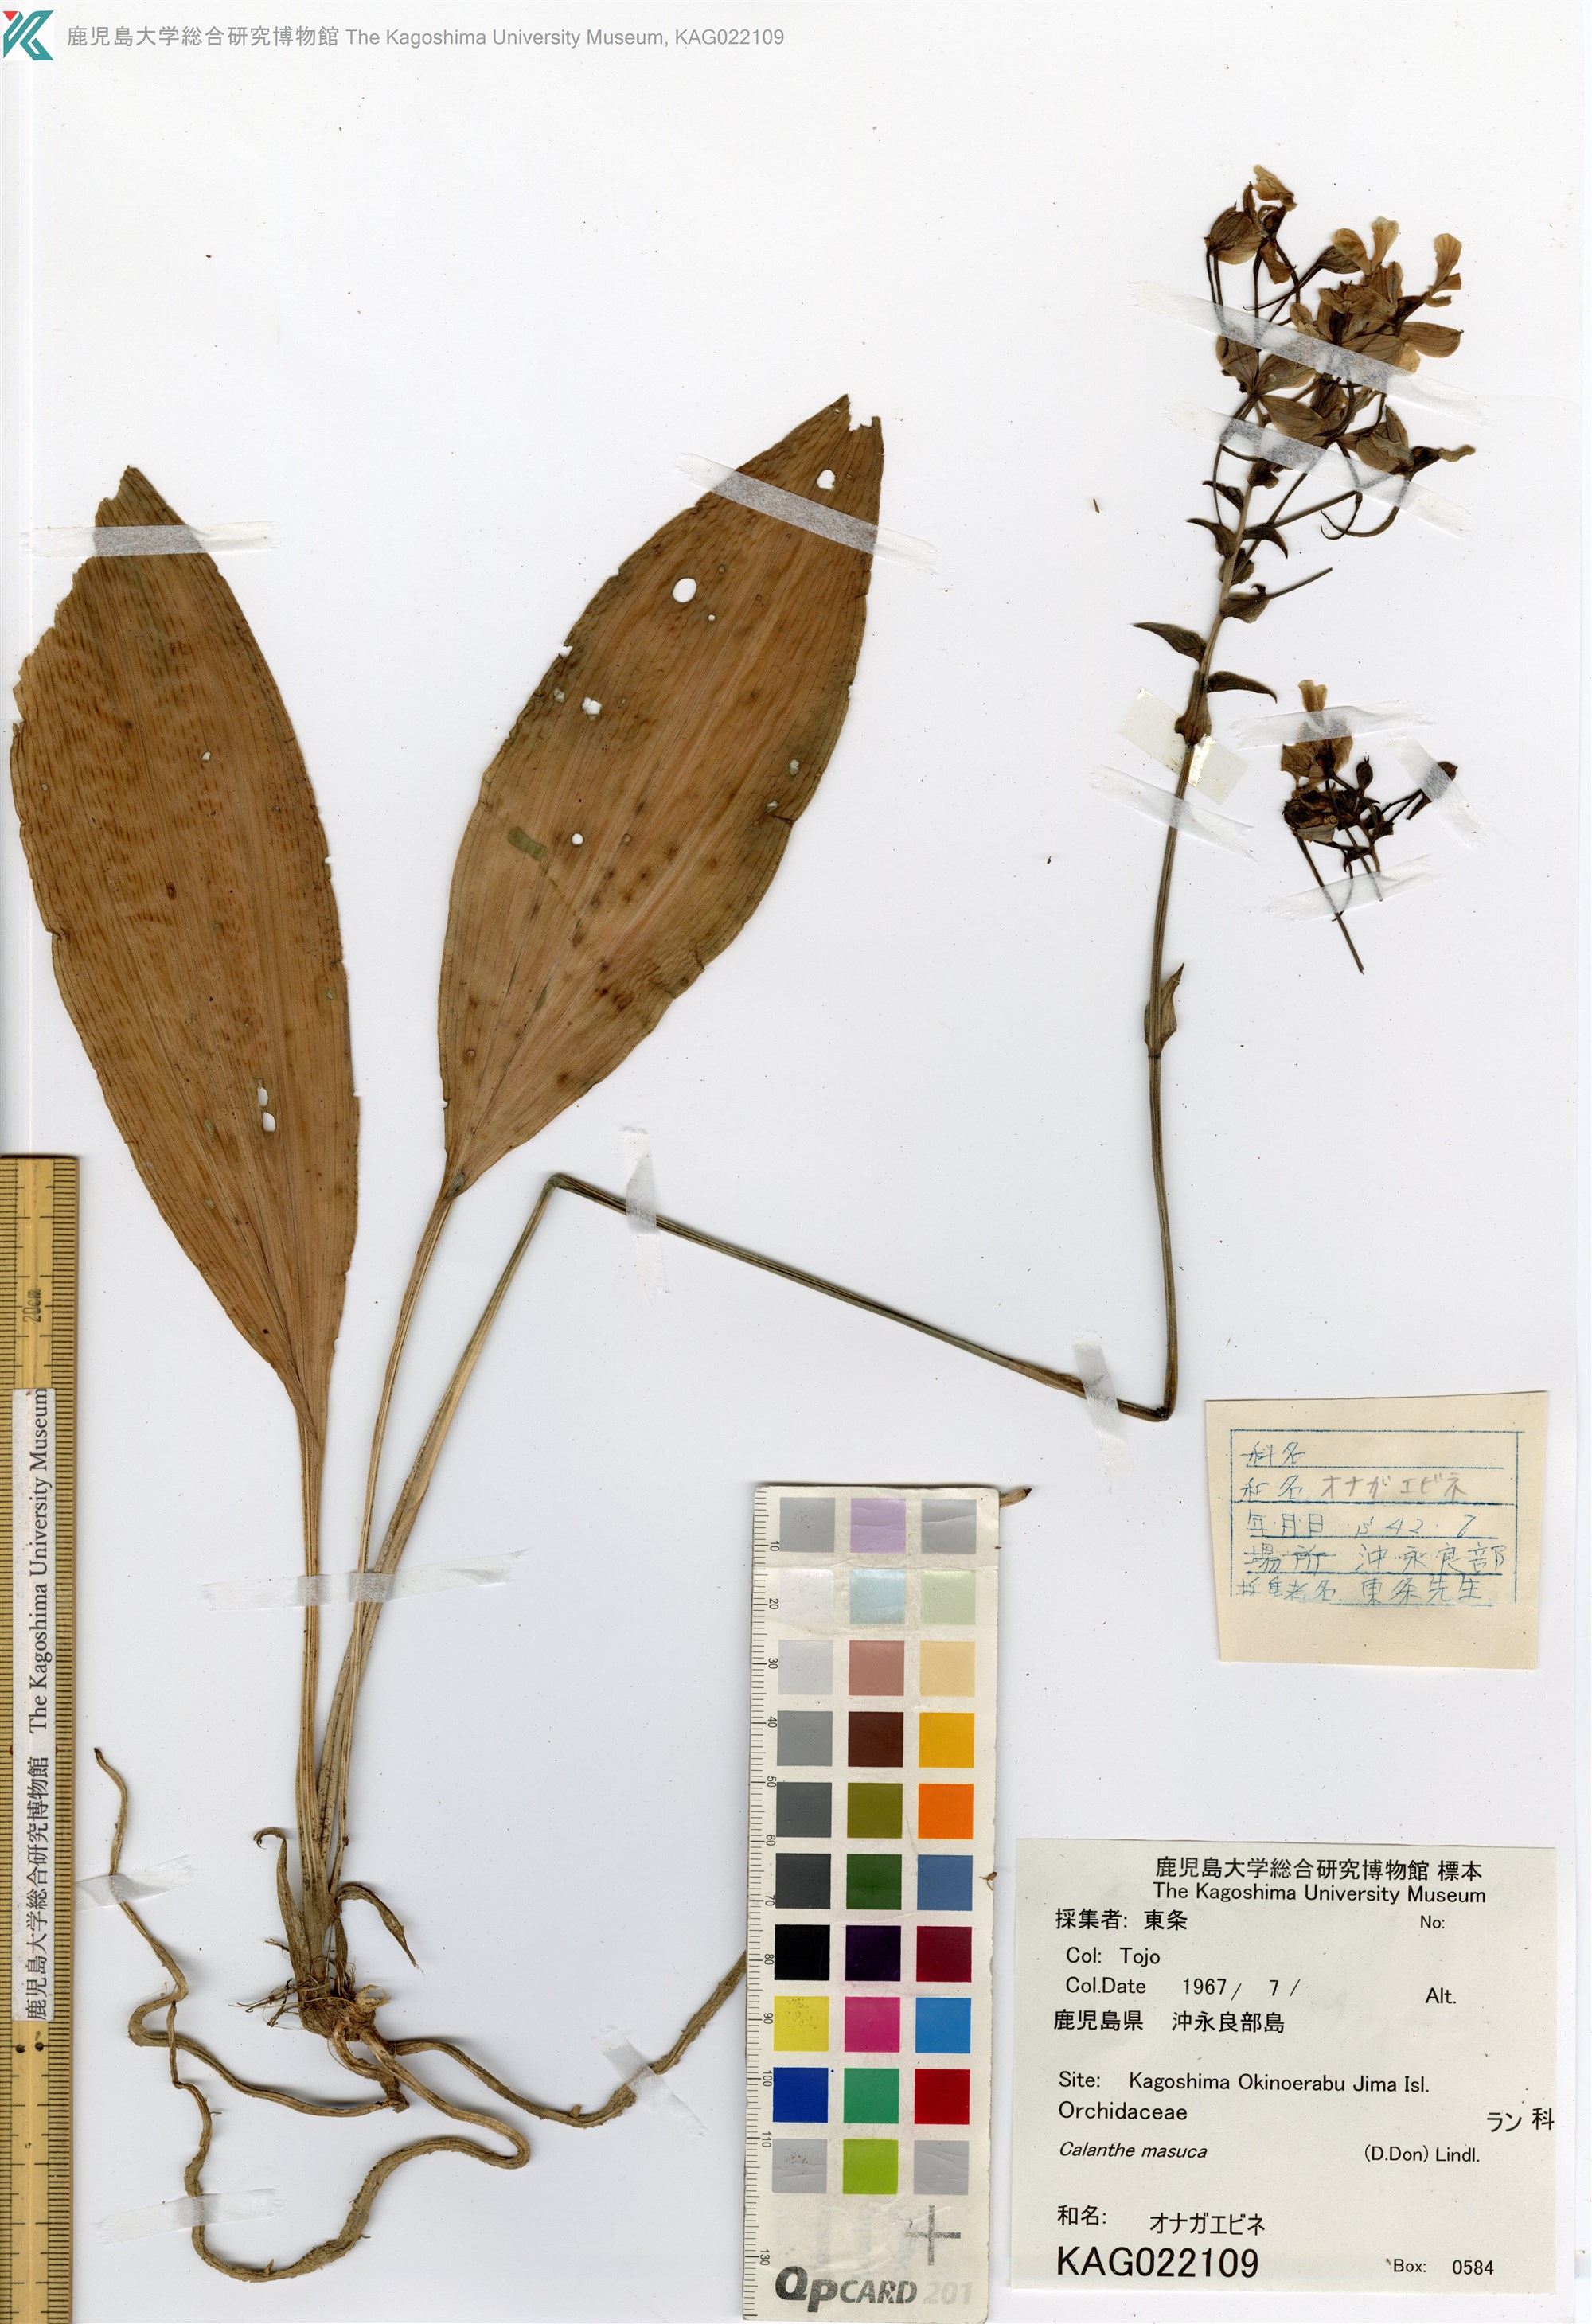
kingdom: Plantae
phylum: Tracheophyta
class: Liliopsida
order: Asparagales
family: Orchidaceae
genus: Calanthe
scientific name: Calanthe masuca
